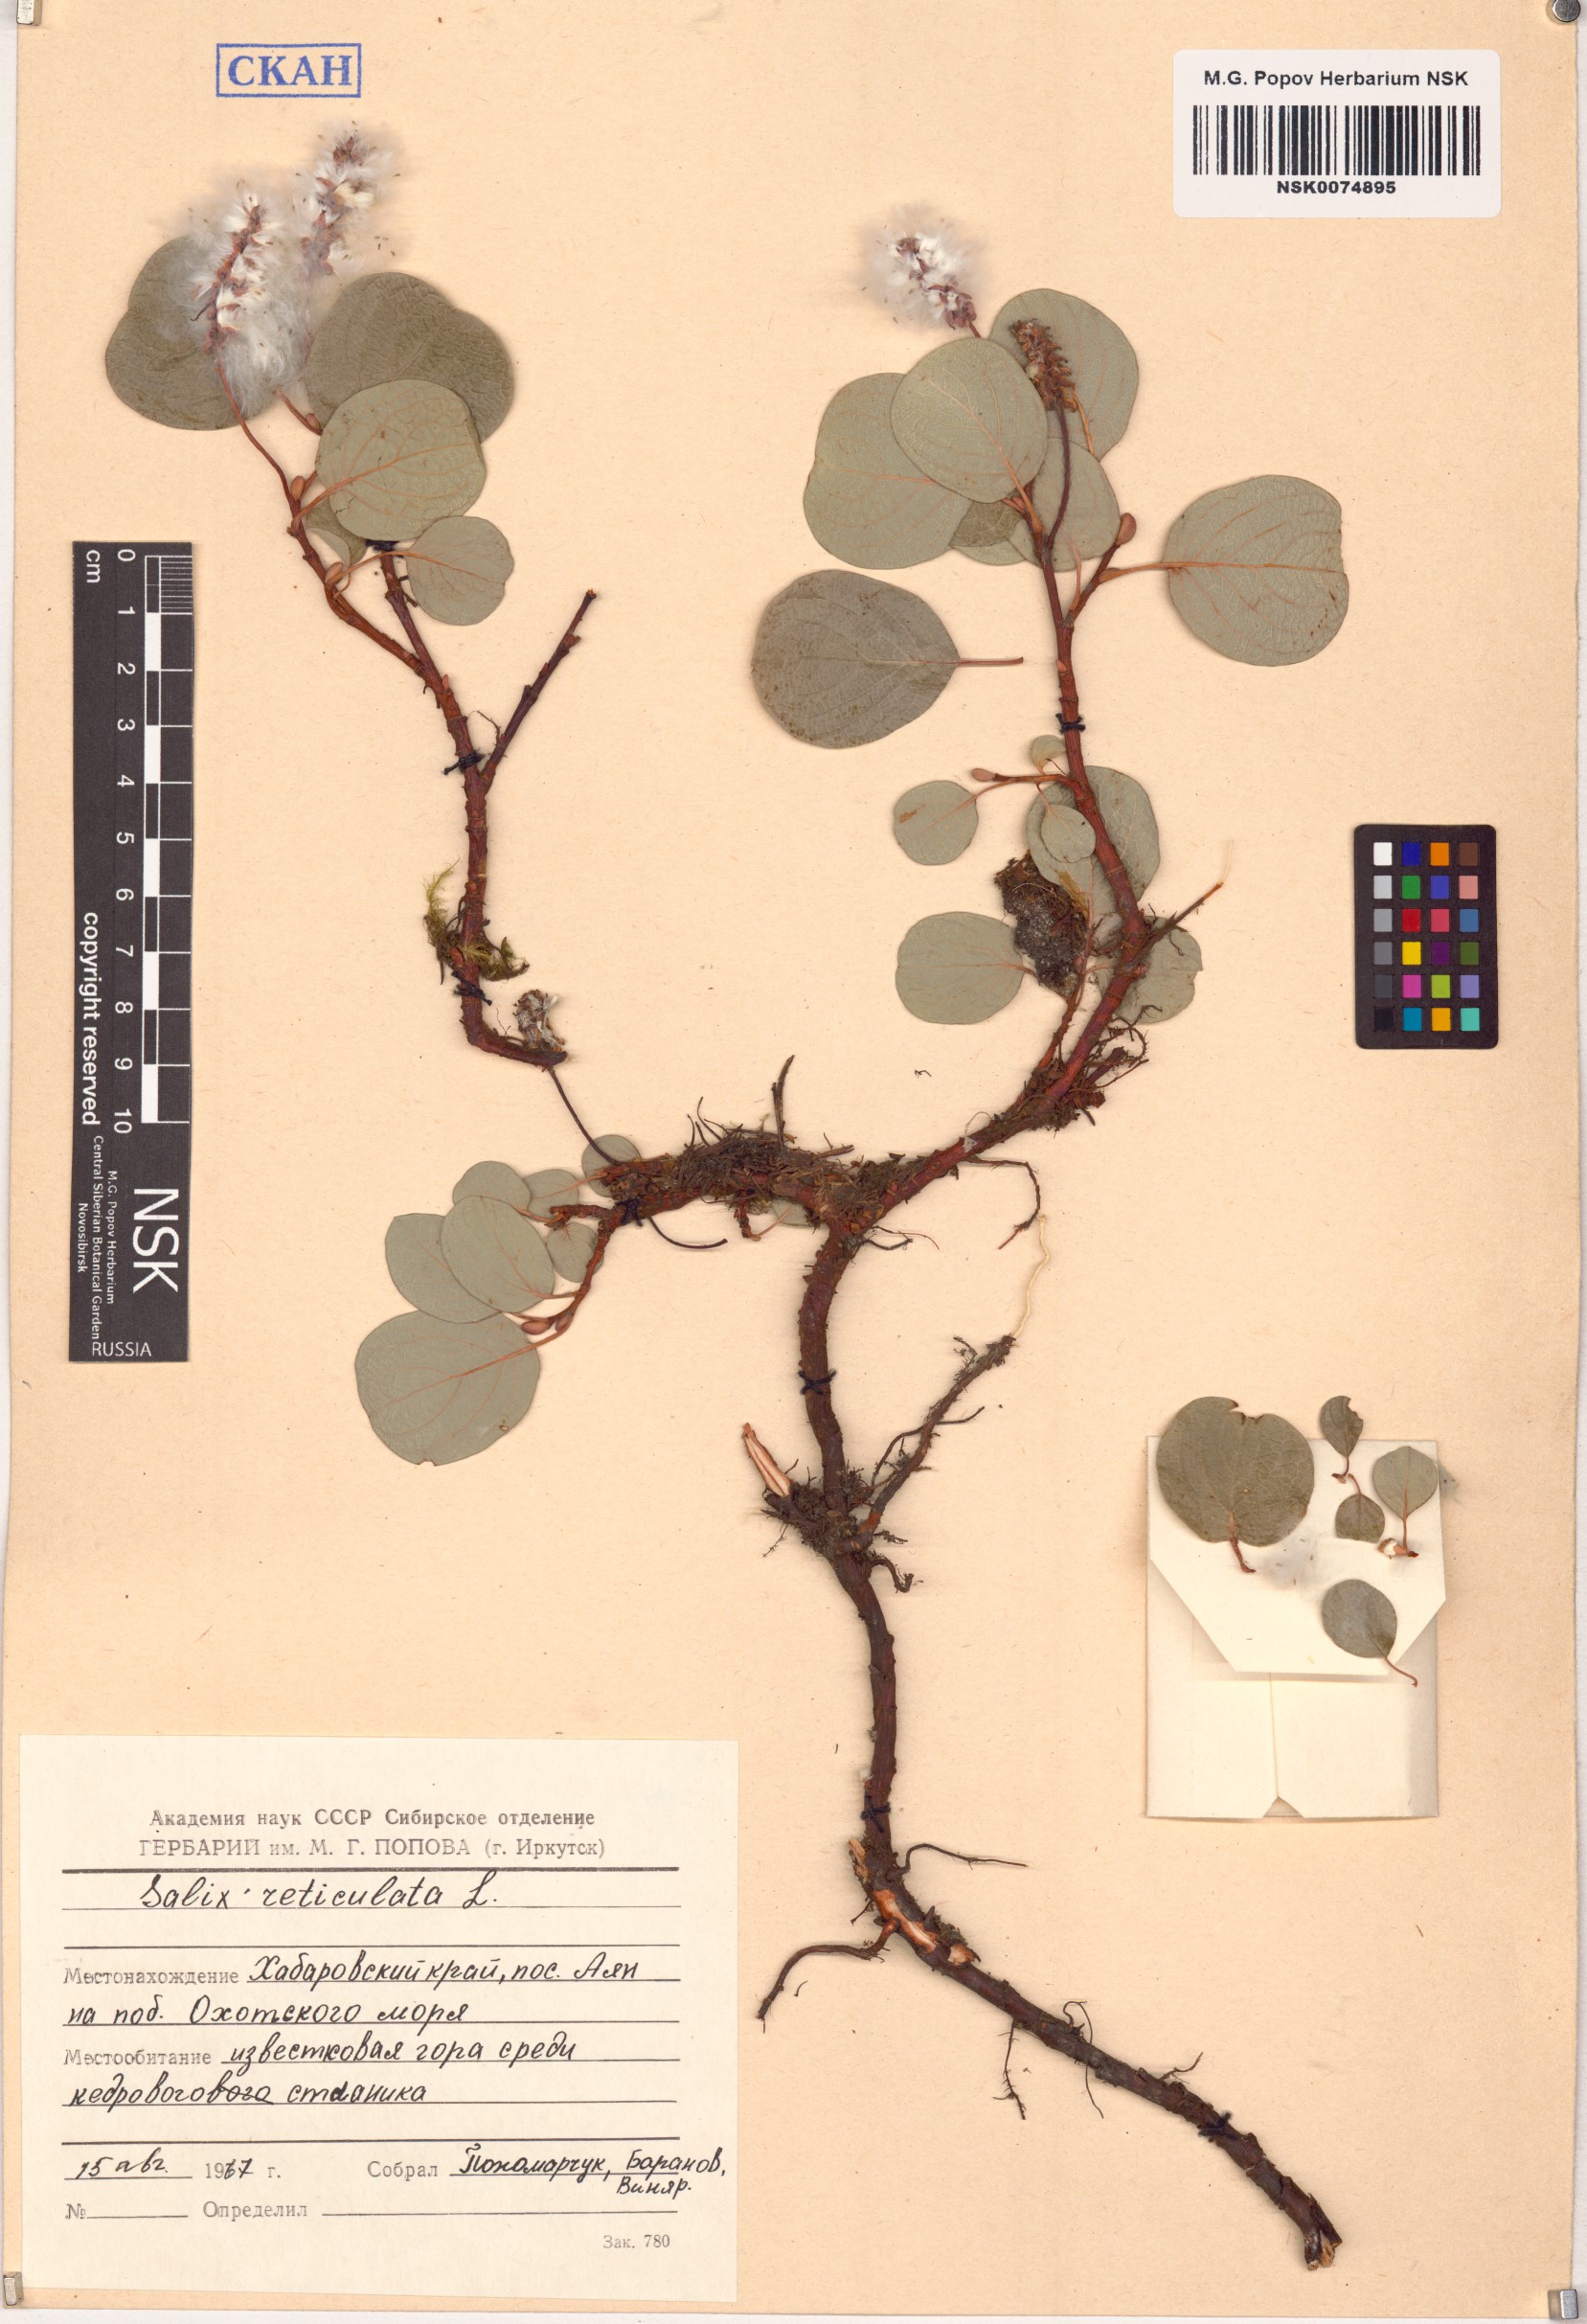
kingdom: Plantae
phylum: Tracheophyta
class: Magnoliopsida
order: Malpighiales
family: Salicaceae
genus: Salix
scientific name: Salix reticulata
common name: Net-leaved willow
